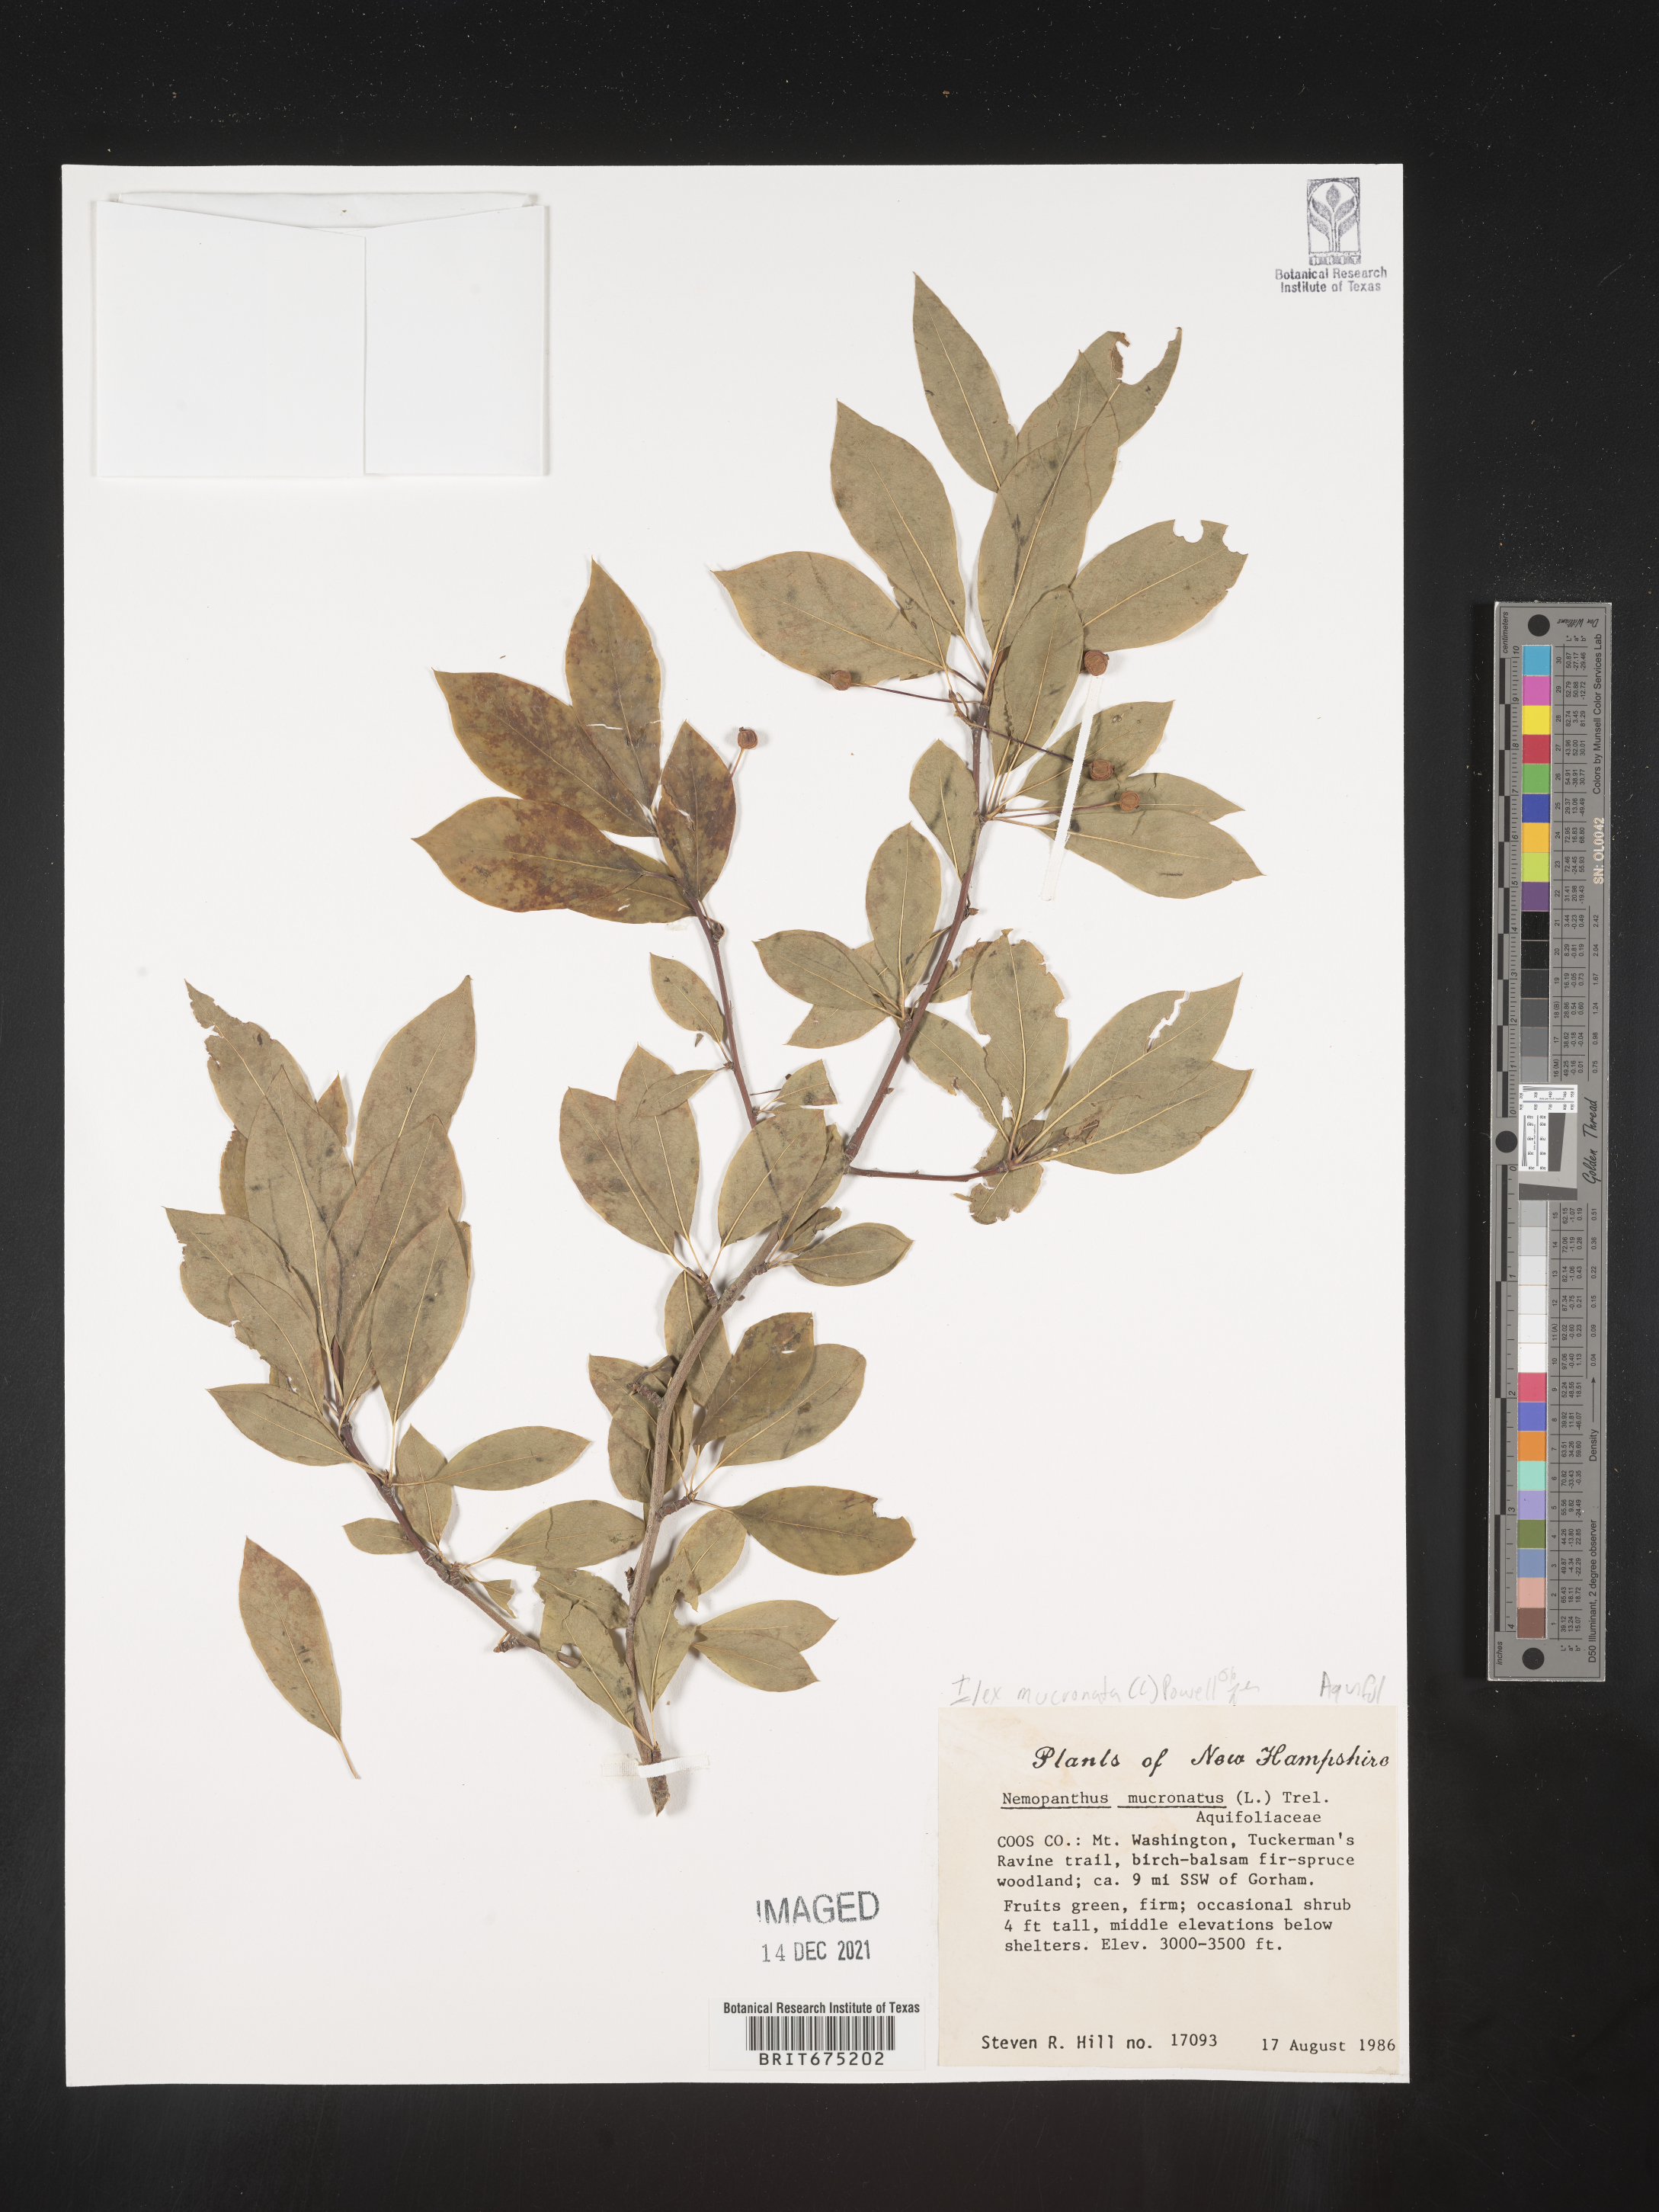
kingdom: Plantae
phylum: Tracheophyta
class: Magnoliopsida
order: Aquifoliales
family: Aquifoliaceae
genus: Ilex
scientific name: Ilex mucronata
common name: Catberry
